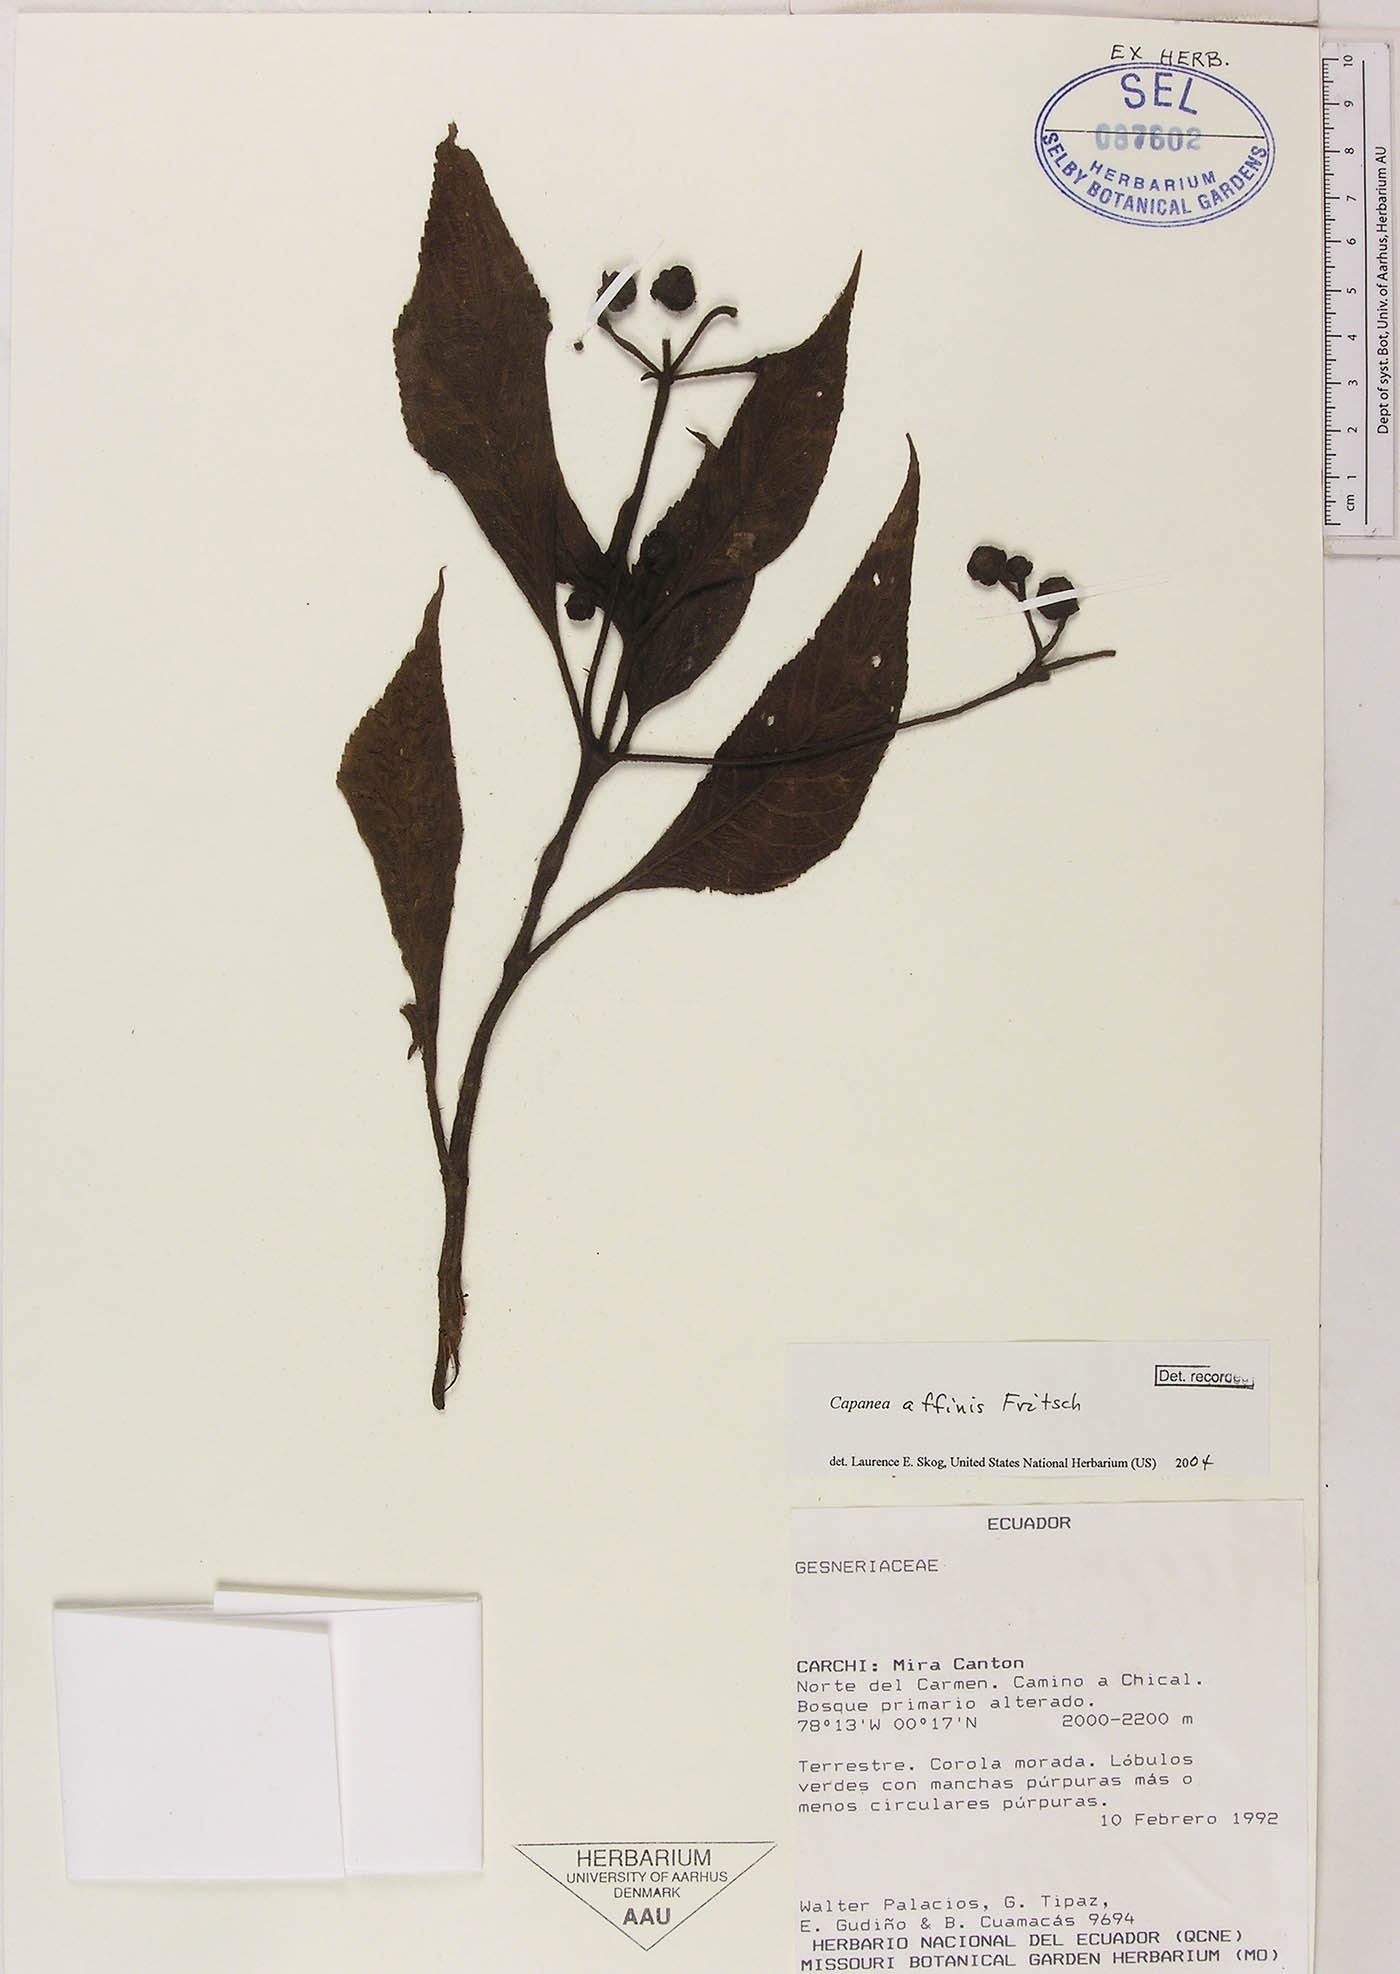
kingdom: Plantae
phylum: Tracheophyta
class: Magnoliopsida
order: Lamiales
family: Gesneriaceae
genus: Kohleria
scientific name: Kohleria affinis
